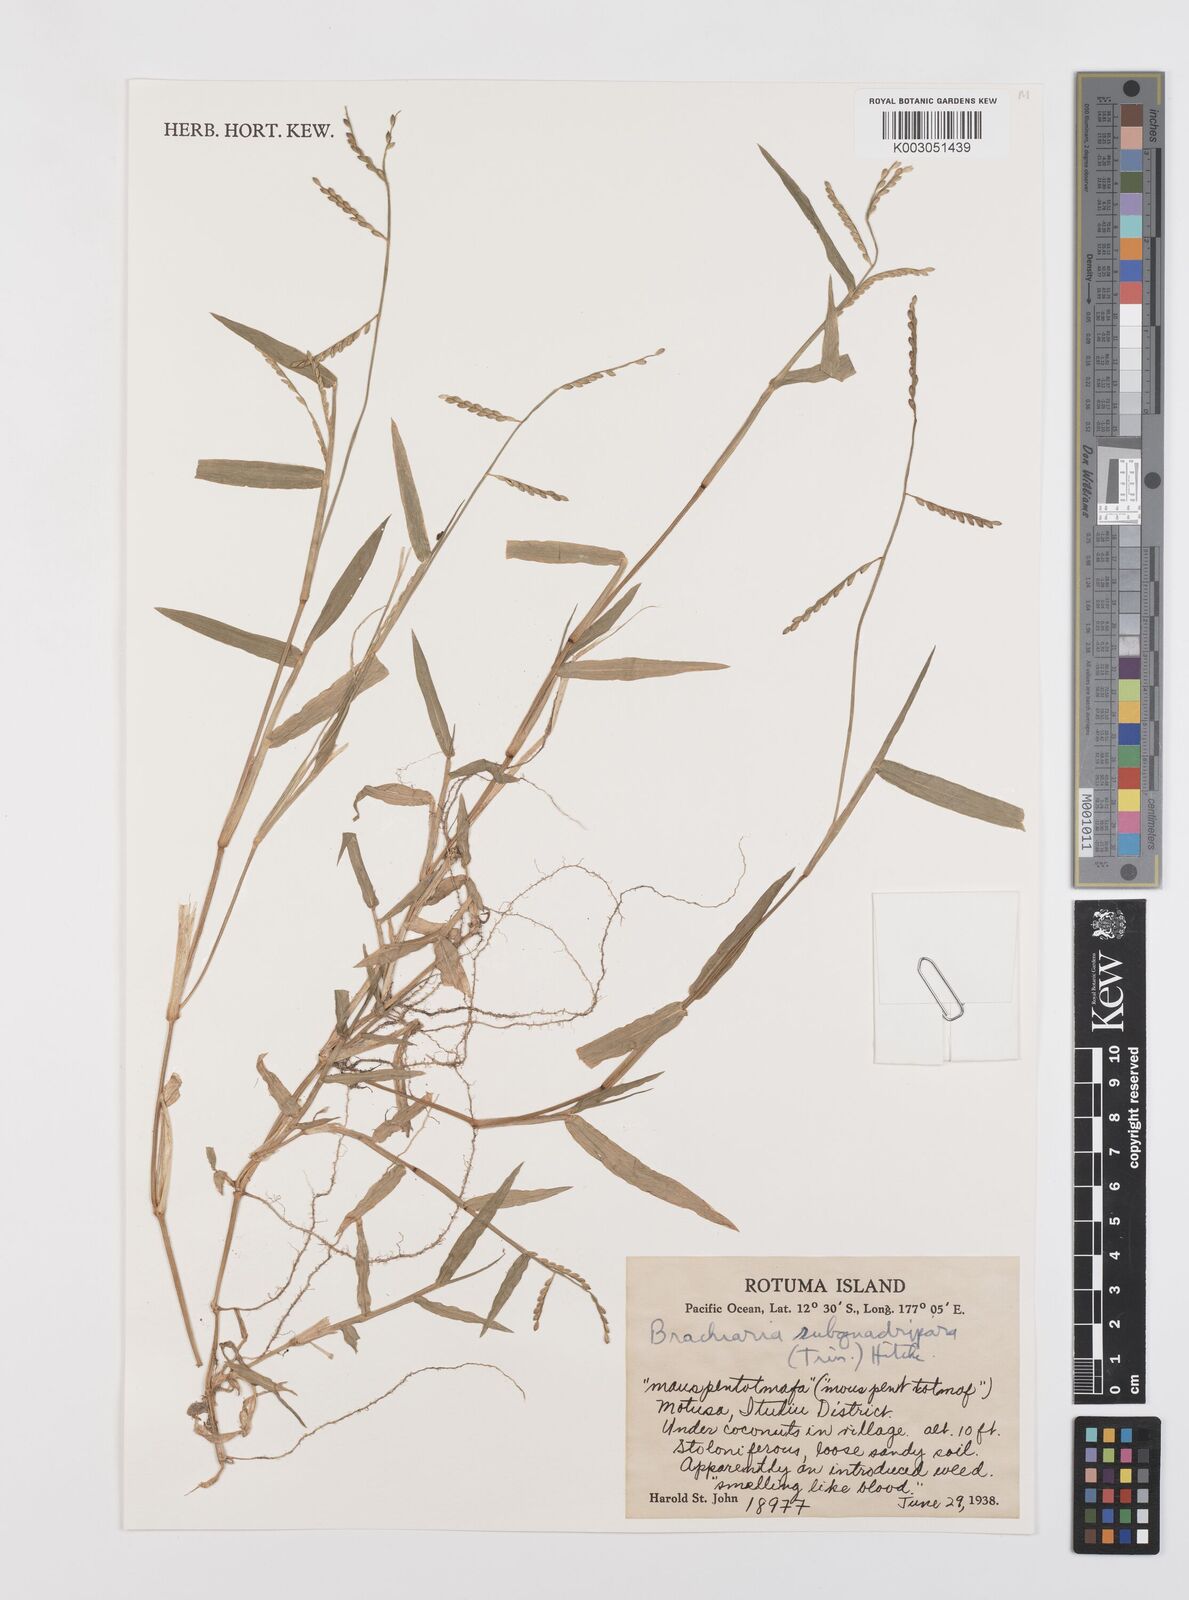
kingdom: Plantae
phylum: Tracheophyta
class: Liliopsida
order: Poales
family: Poaceae
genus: Urochloa
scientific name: Urochloa subquadripara
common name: Armgrass millet
